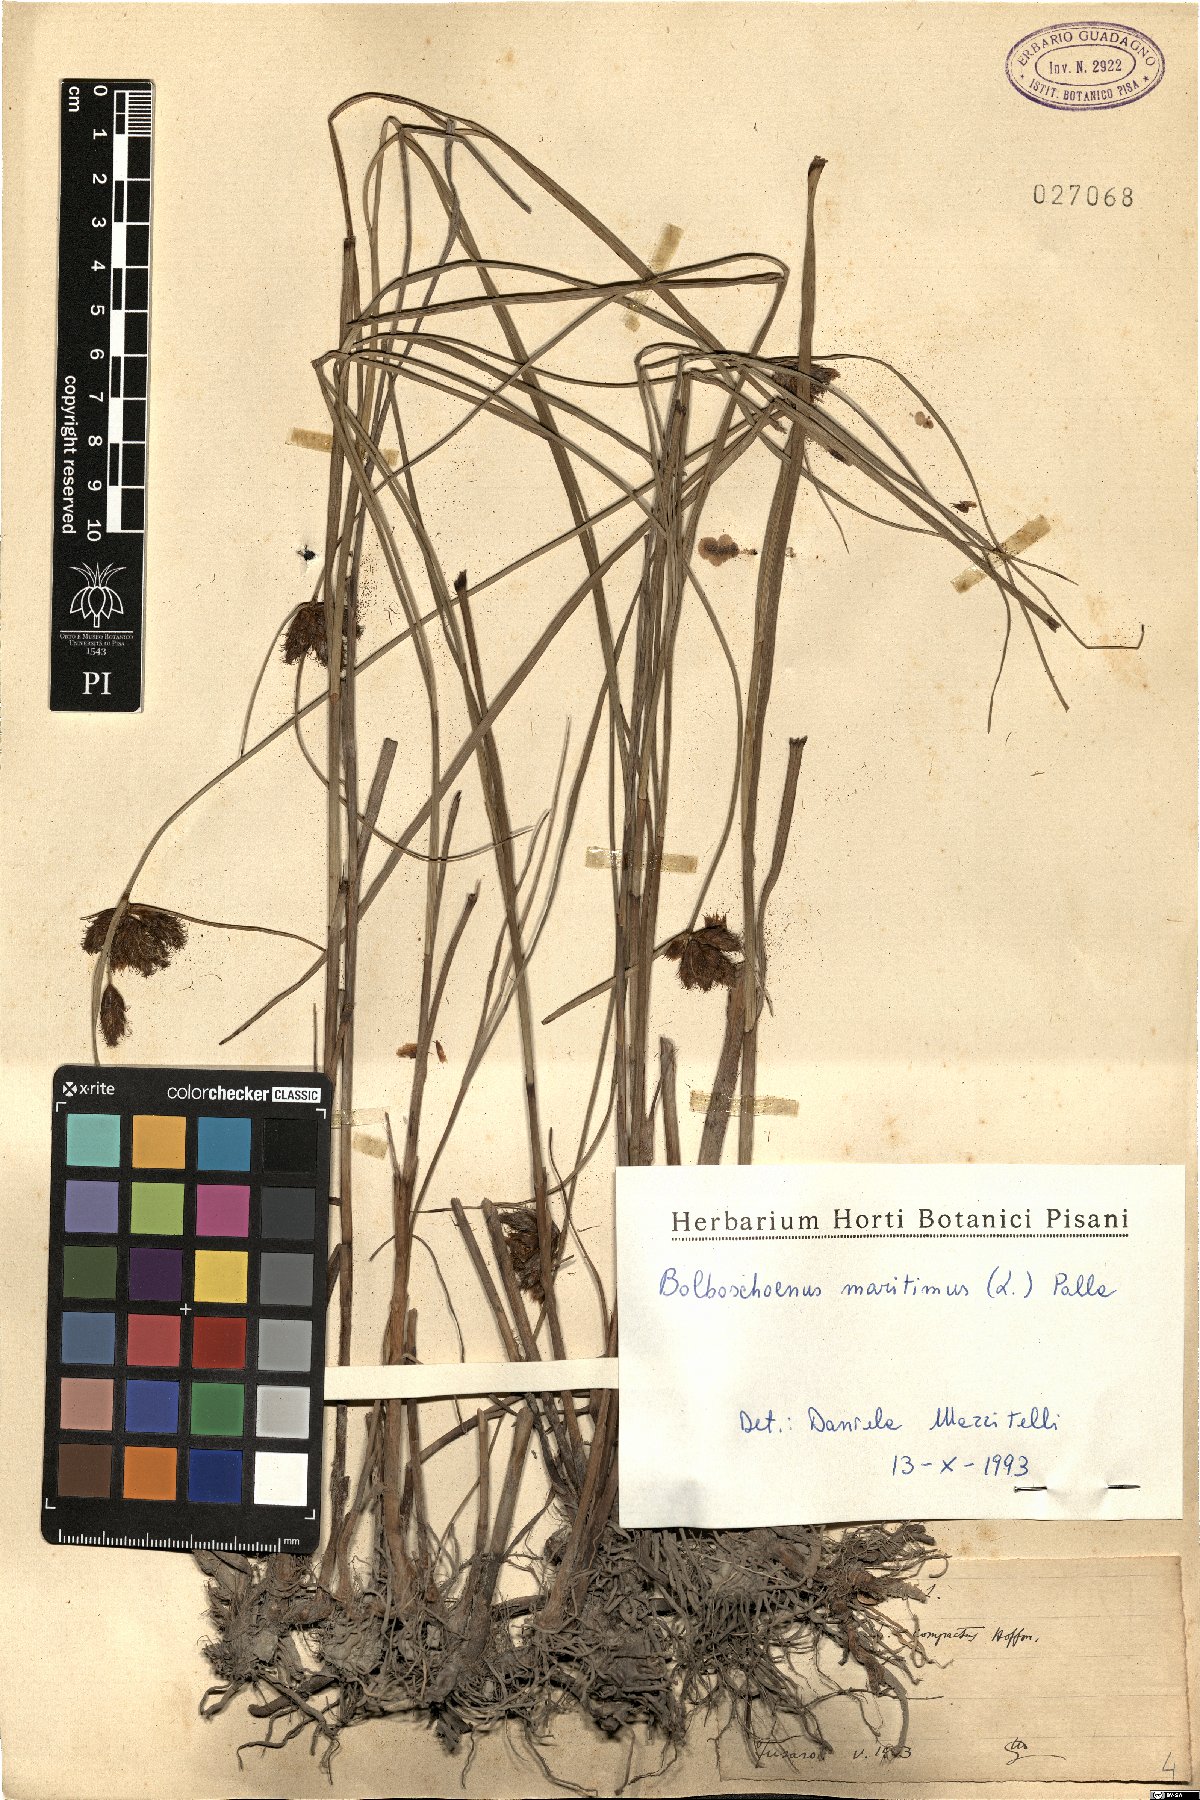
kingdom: Plantae
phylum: Tracheophyta
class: Liliopsida
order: Poales
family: Cyperaceae
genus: Bolboschoenus
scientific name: Bolboschoenus maritimus
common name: Sea club-rush
